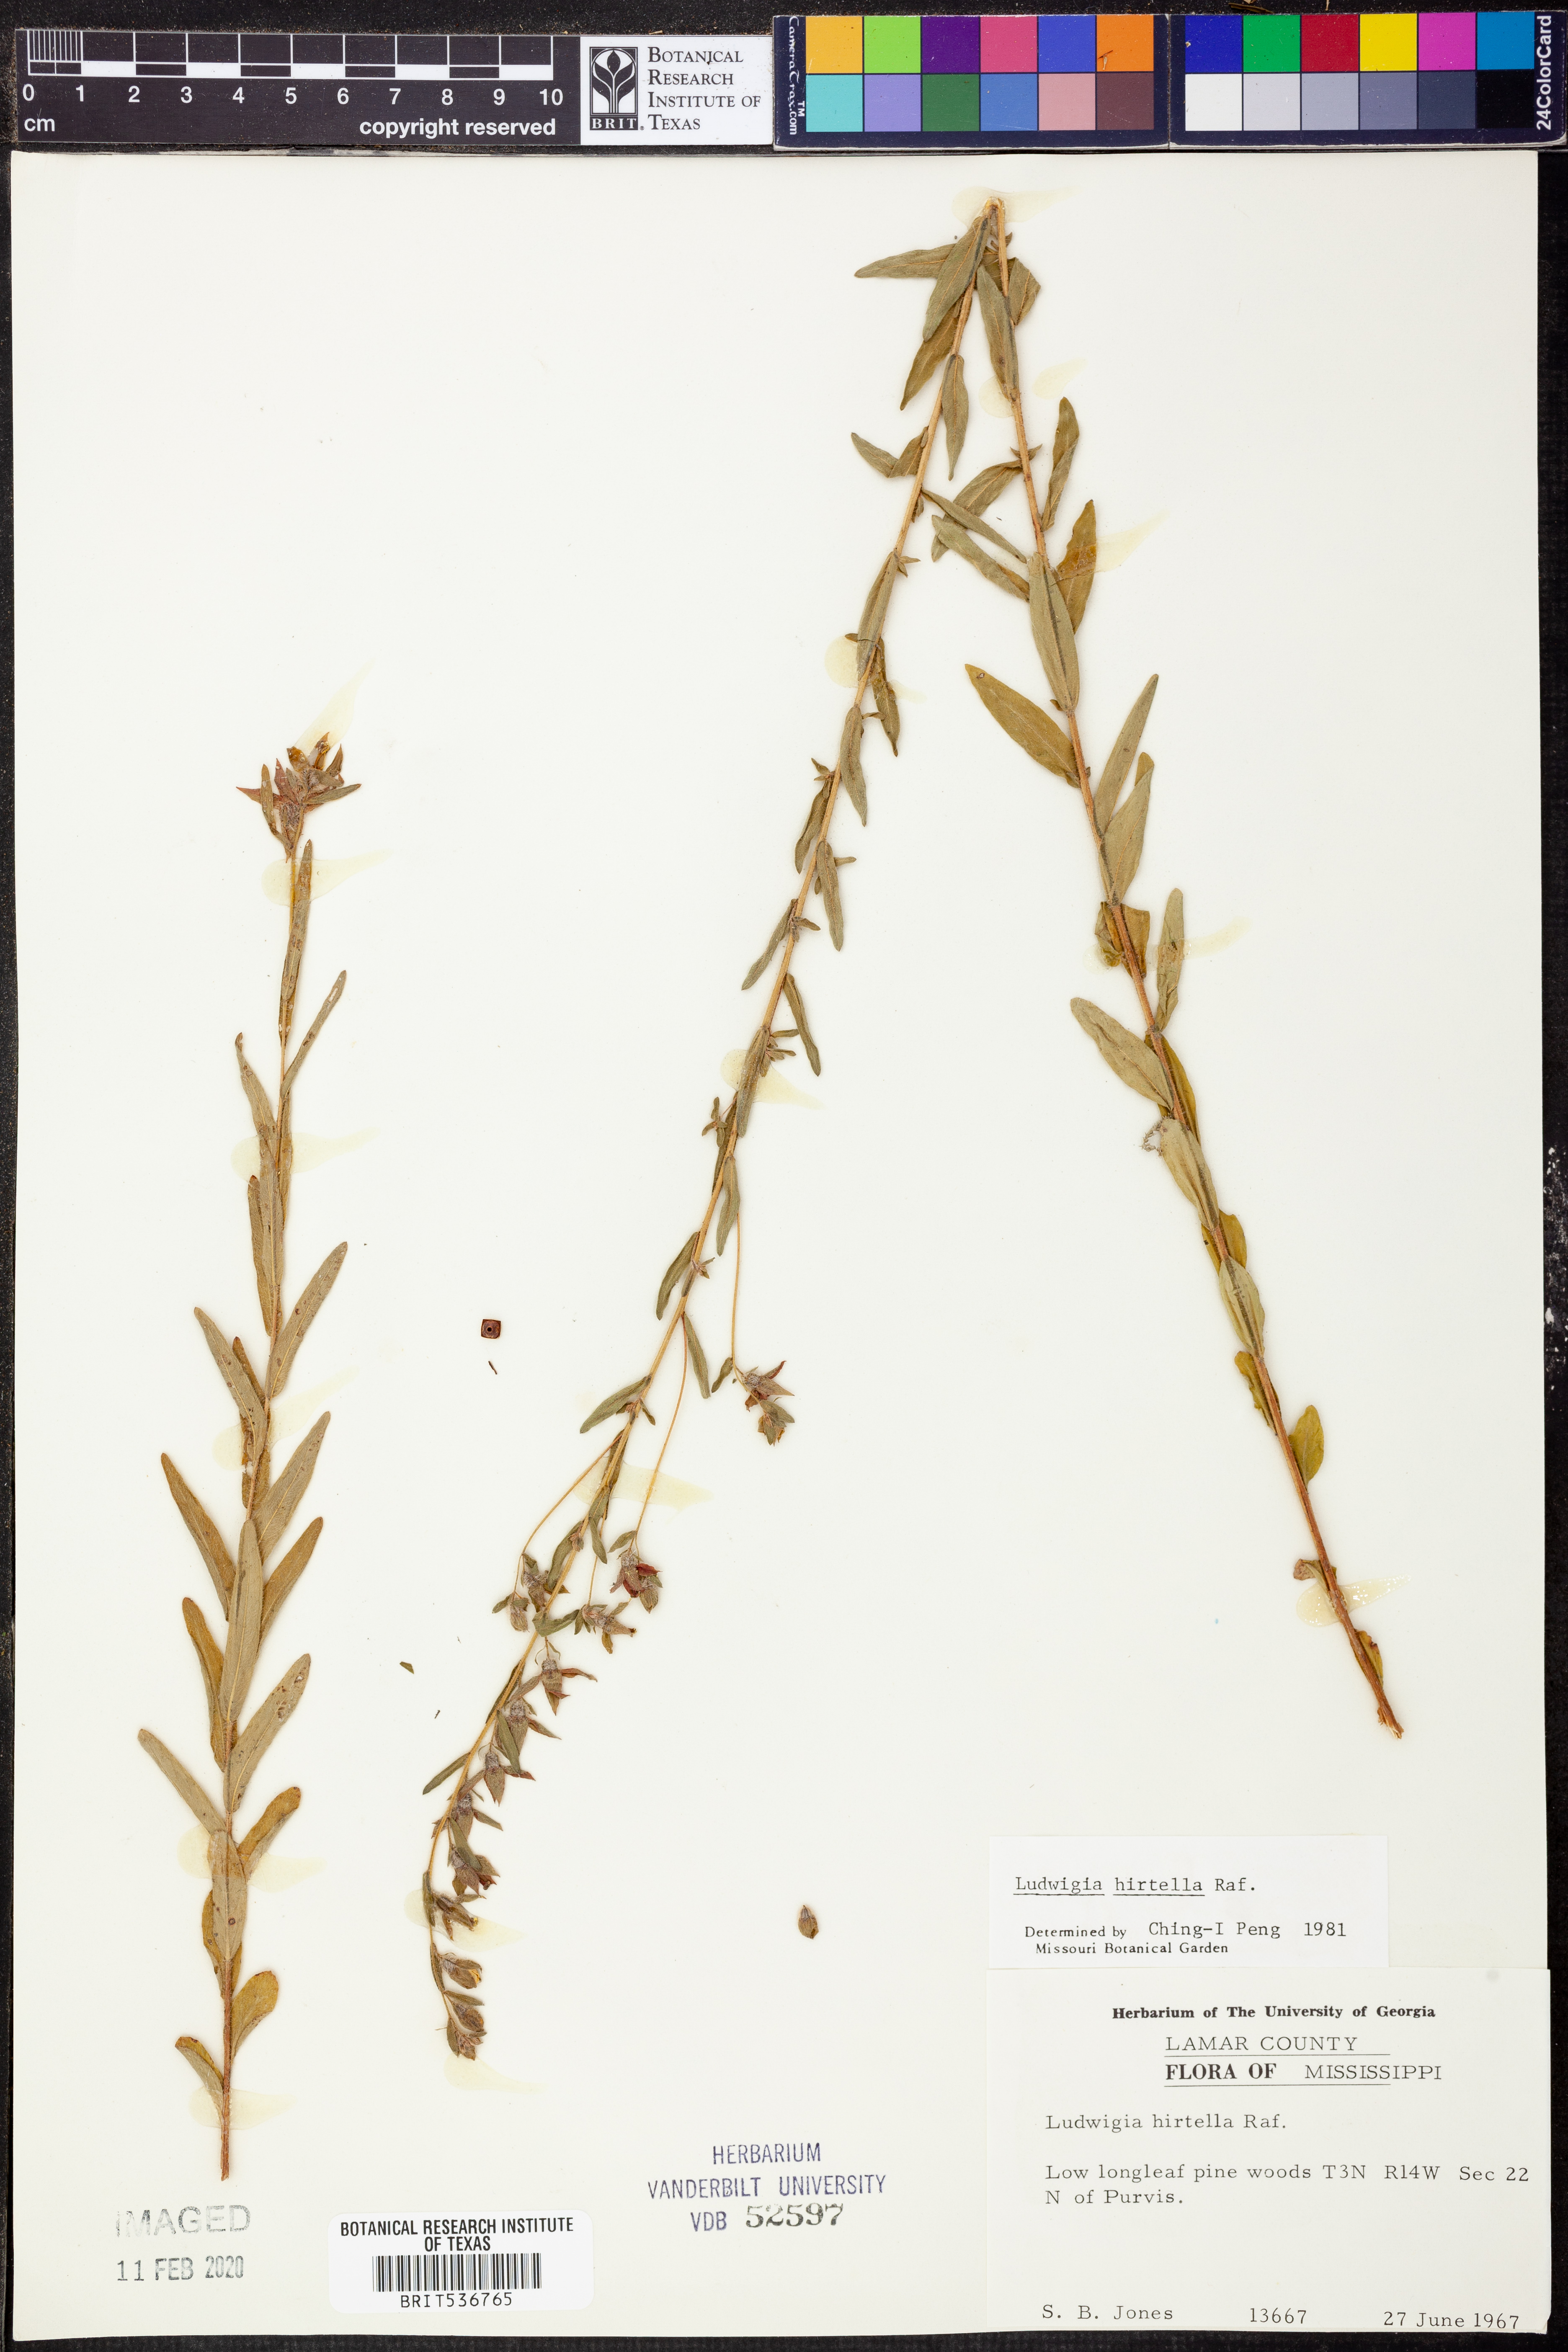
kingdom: Plantae
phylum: Tracheophyta
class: Magnoliopsida
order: Myrtales
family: Onagraceae
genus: Ludwigia
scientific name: Ludwigia hirtella
